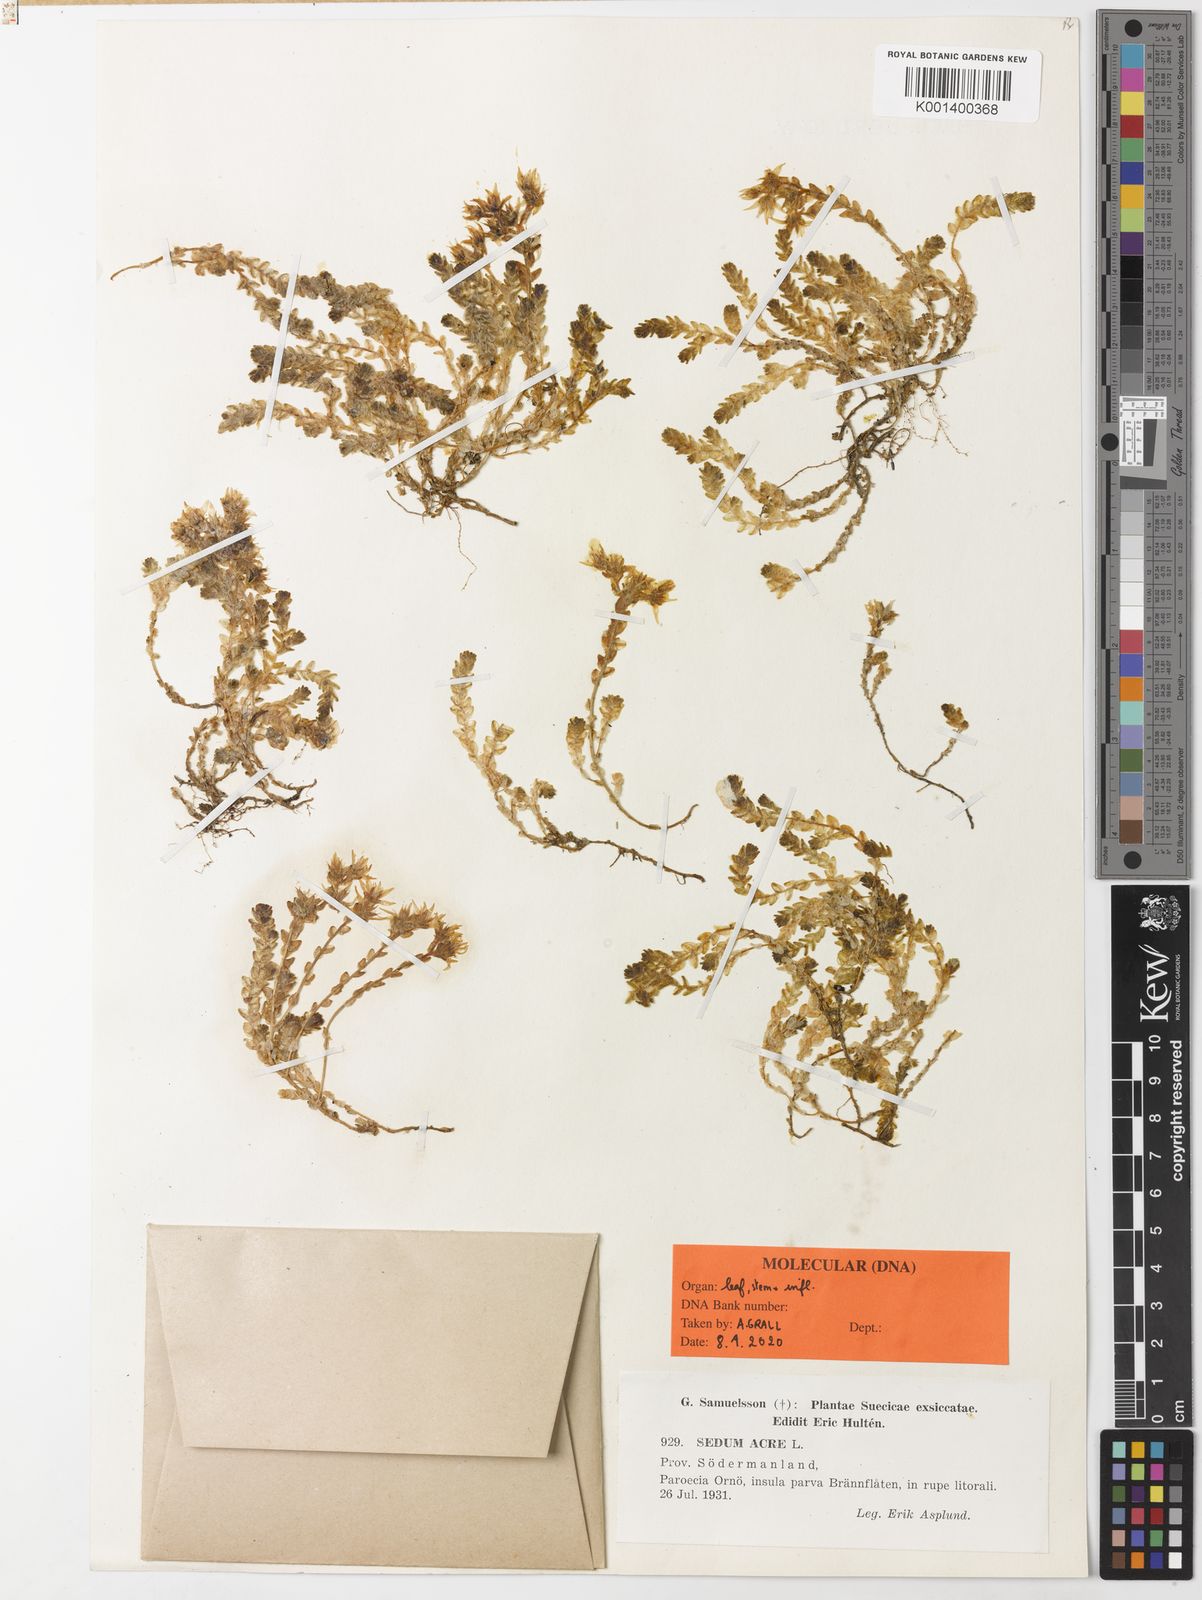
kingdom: Plantae
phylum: Tracheophyta
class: Magnoliopsida
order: Saxifragales
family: Crassulaceae
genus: Sedum
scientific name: Sedum acre
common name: Biting stonecrop
